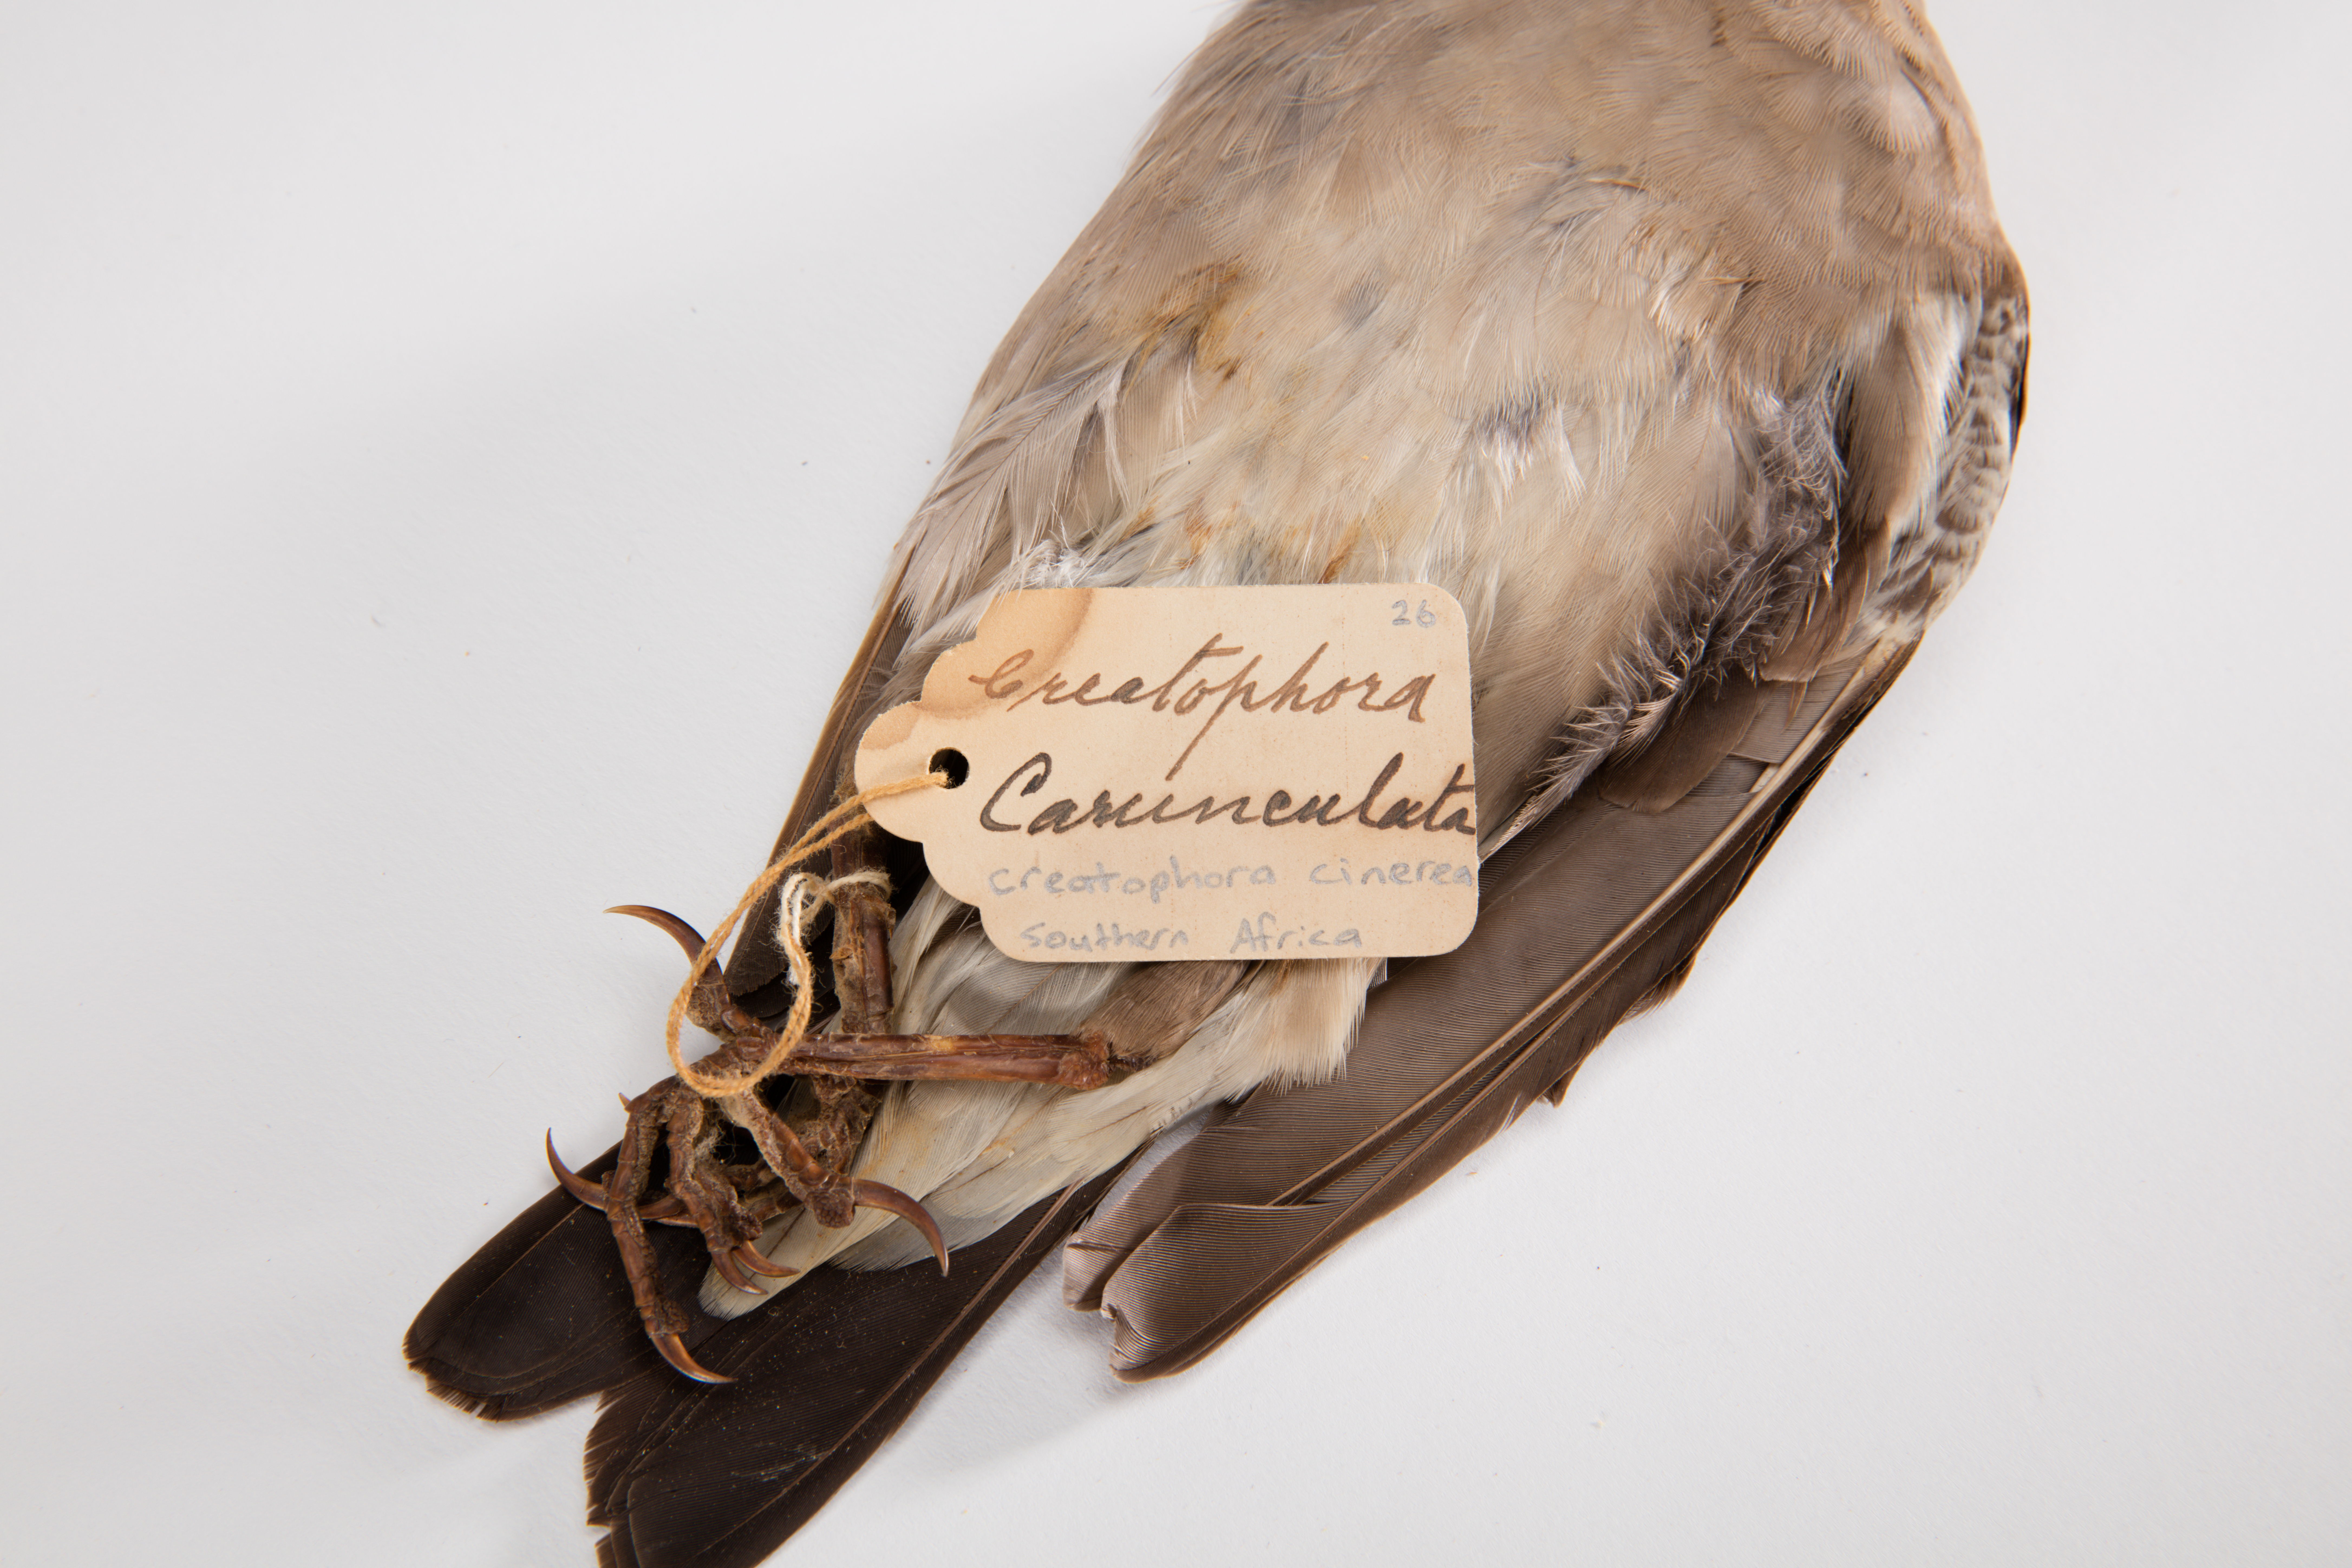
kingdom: Animalia
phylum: Chordata
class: Aves
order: Passeriformes
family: Sturnidae
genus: Creatophora
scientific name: Creatophora cinerea
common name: Wattled starling
